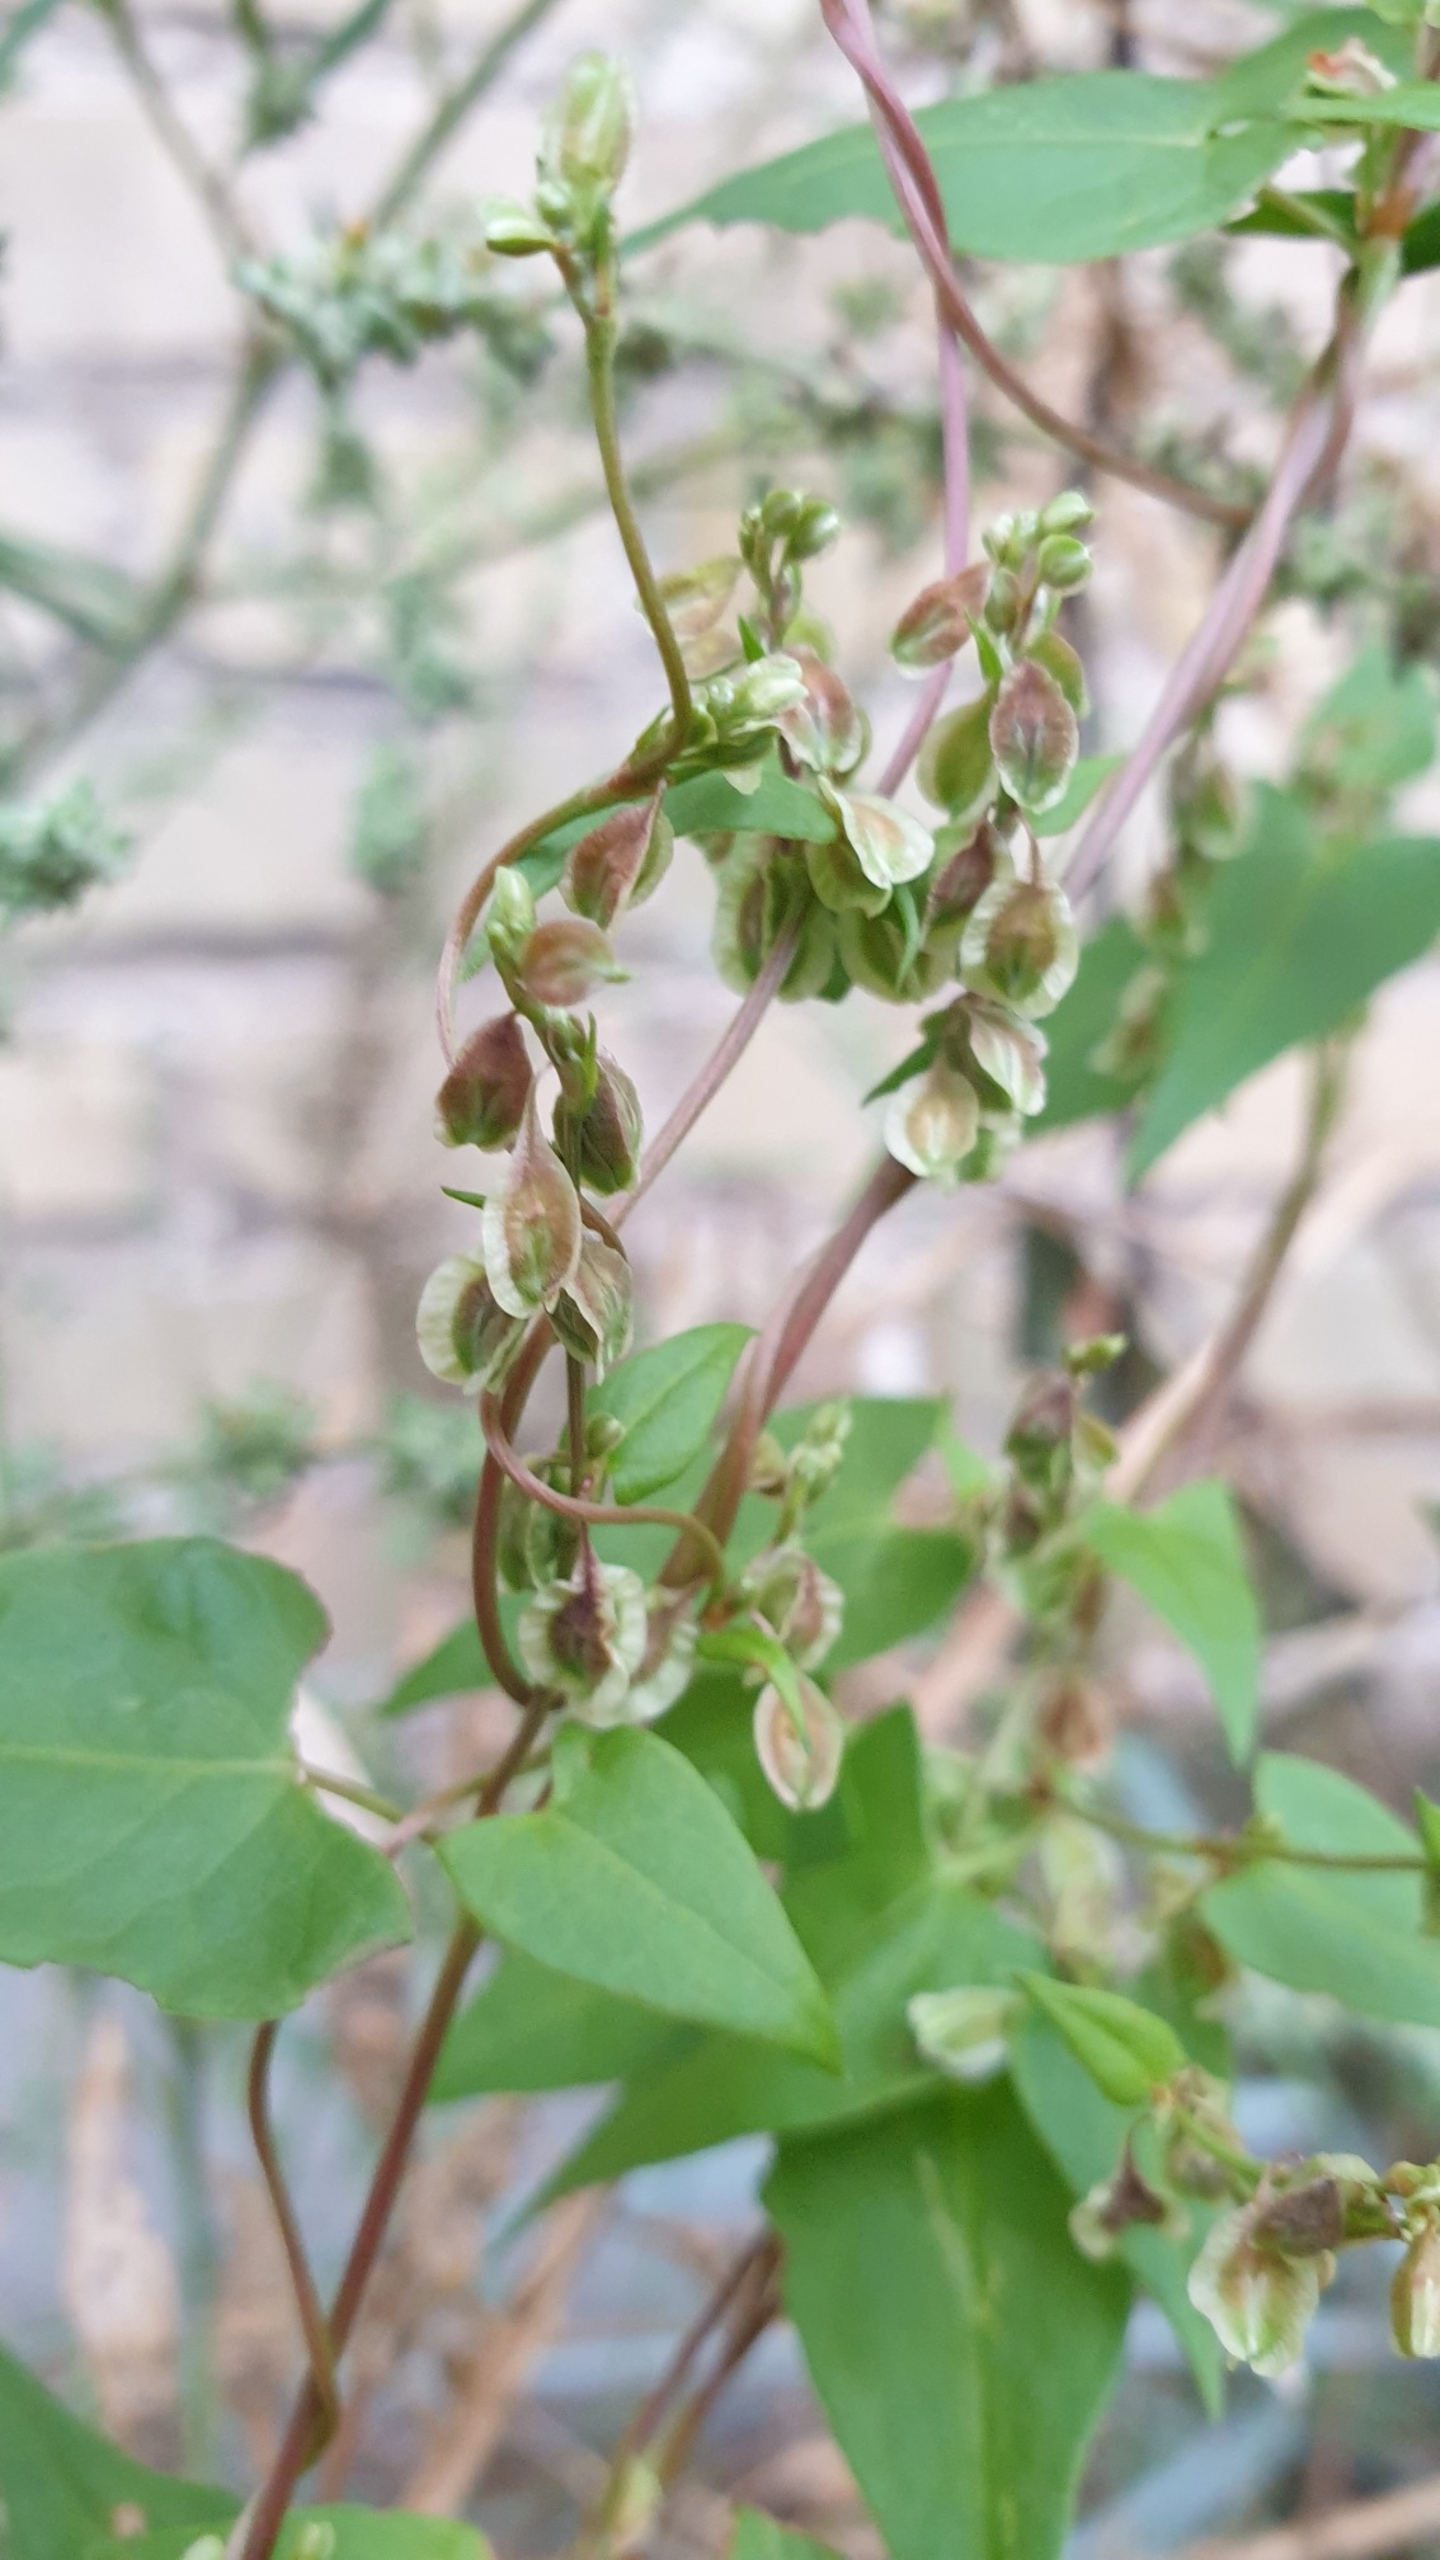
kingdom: Plantae
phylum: Tracheophyta
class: Magnoliopsida
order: Caryophyllales
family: Polygonaceae
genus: Fallopia
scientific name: Fallopia dumetorum
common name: Vinge-pileurt
